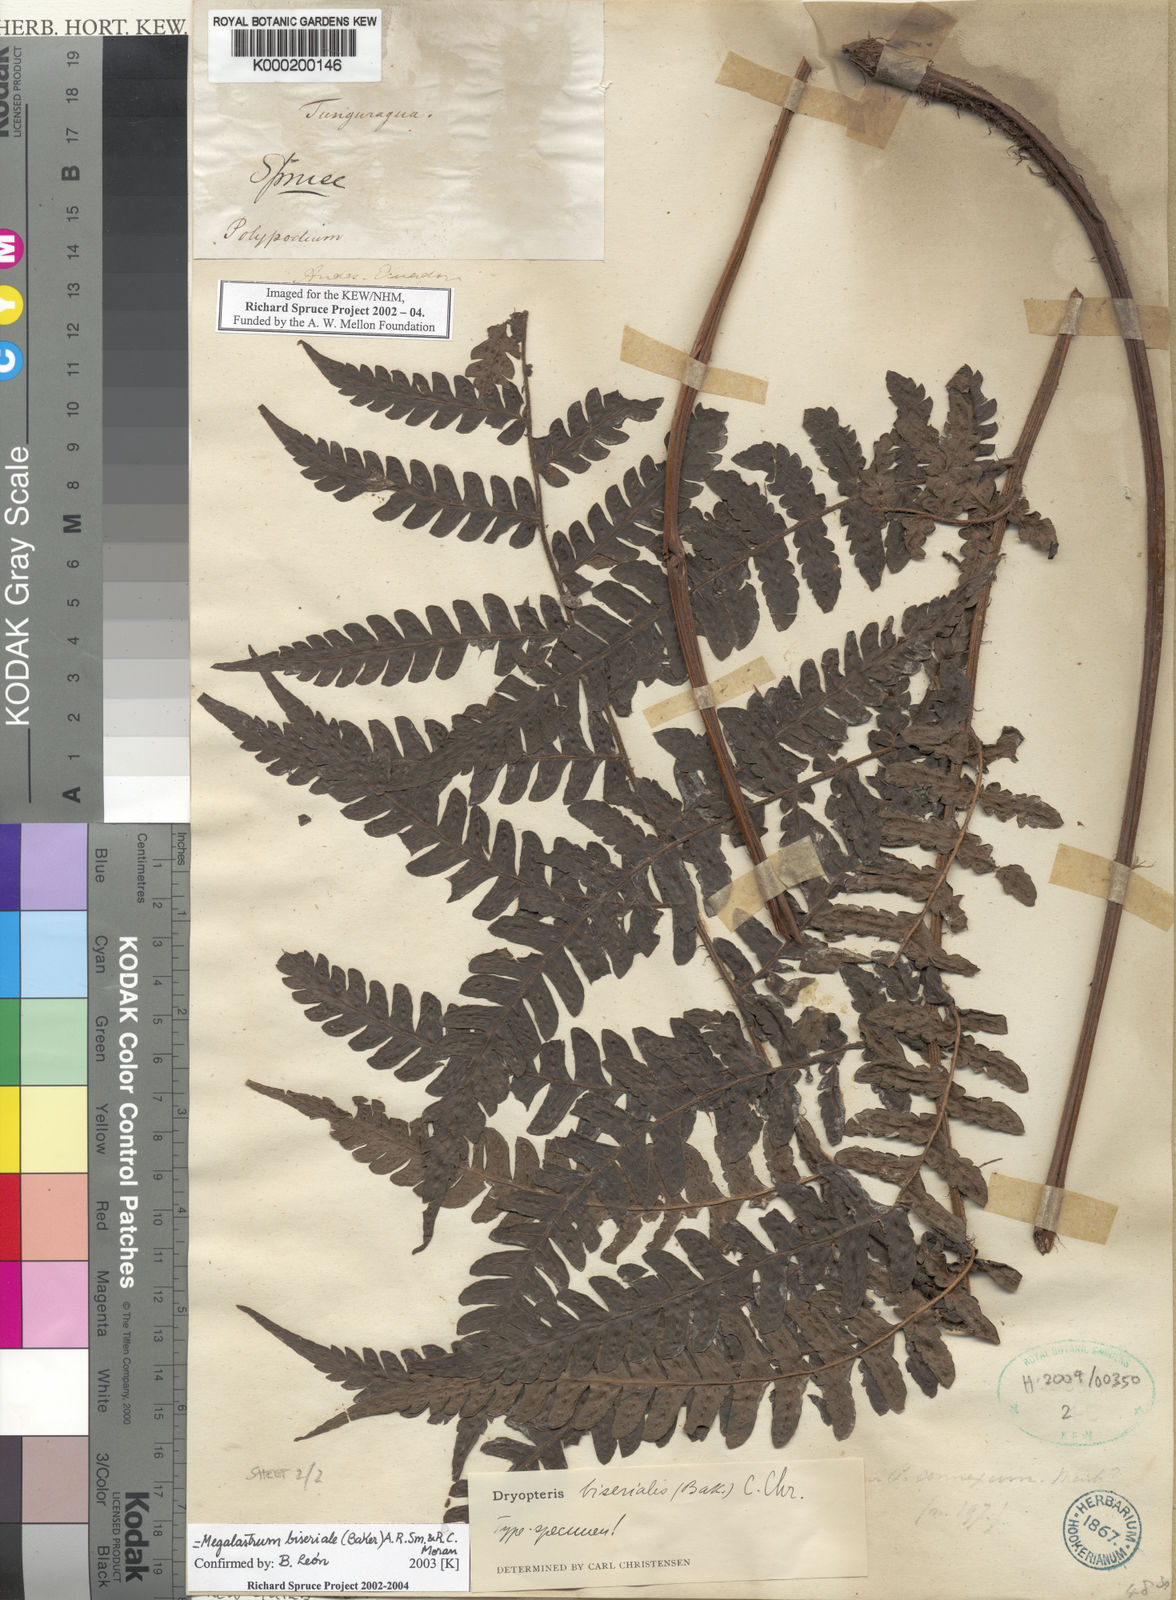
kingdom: Plantae
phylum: Tracheophyta
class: Polypodiopsida
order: Polypodiales
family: Dryopteridaceae
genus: Megalastrum
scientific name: Megalastrum biseriale
